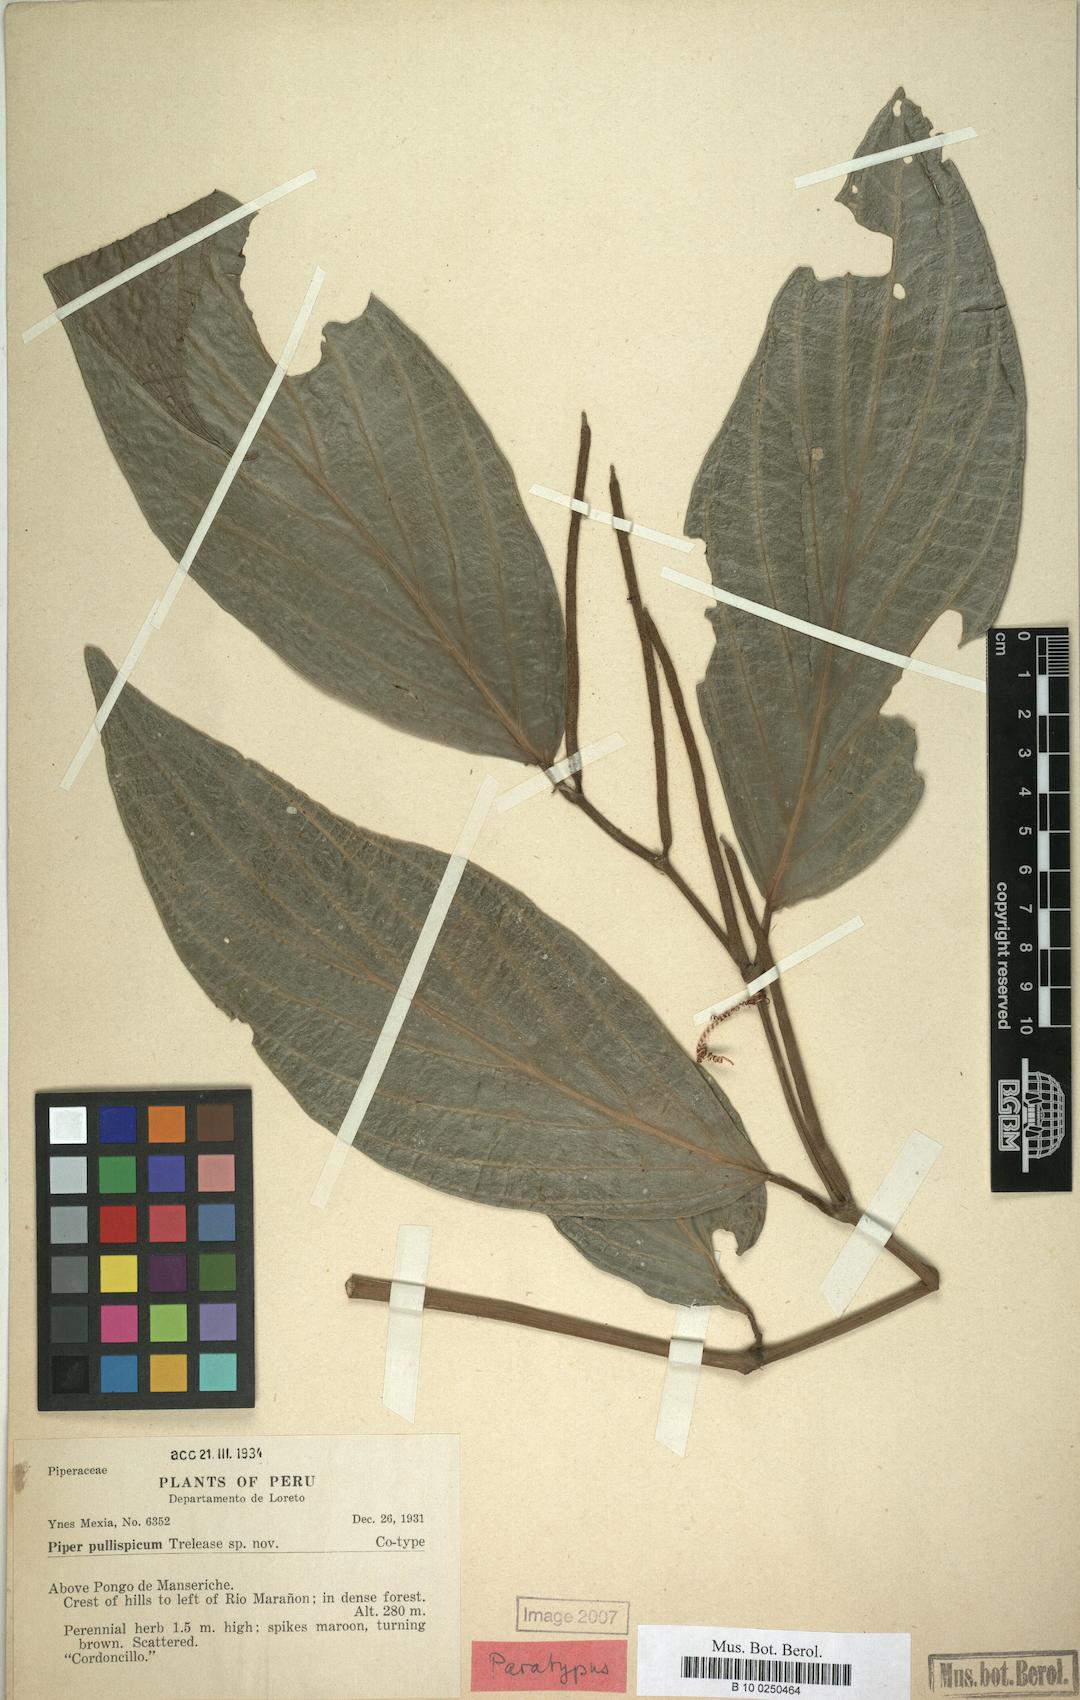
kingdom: Plantae
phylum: Tracheophyta
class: Magnoliopsida
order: Piperales
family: Piperaceae
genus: Piper
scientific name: Piper arboreum
